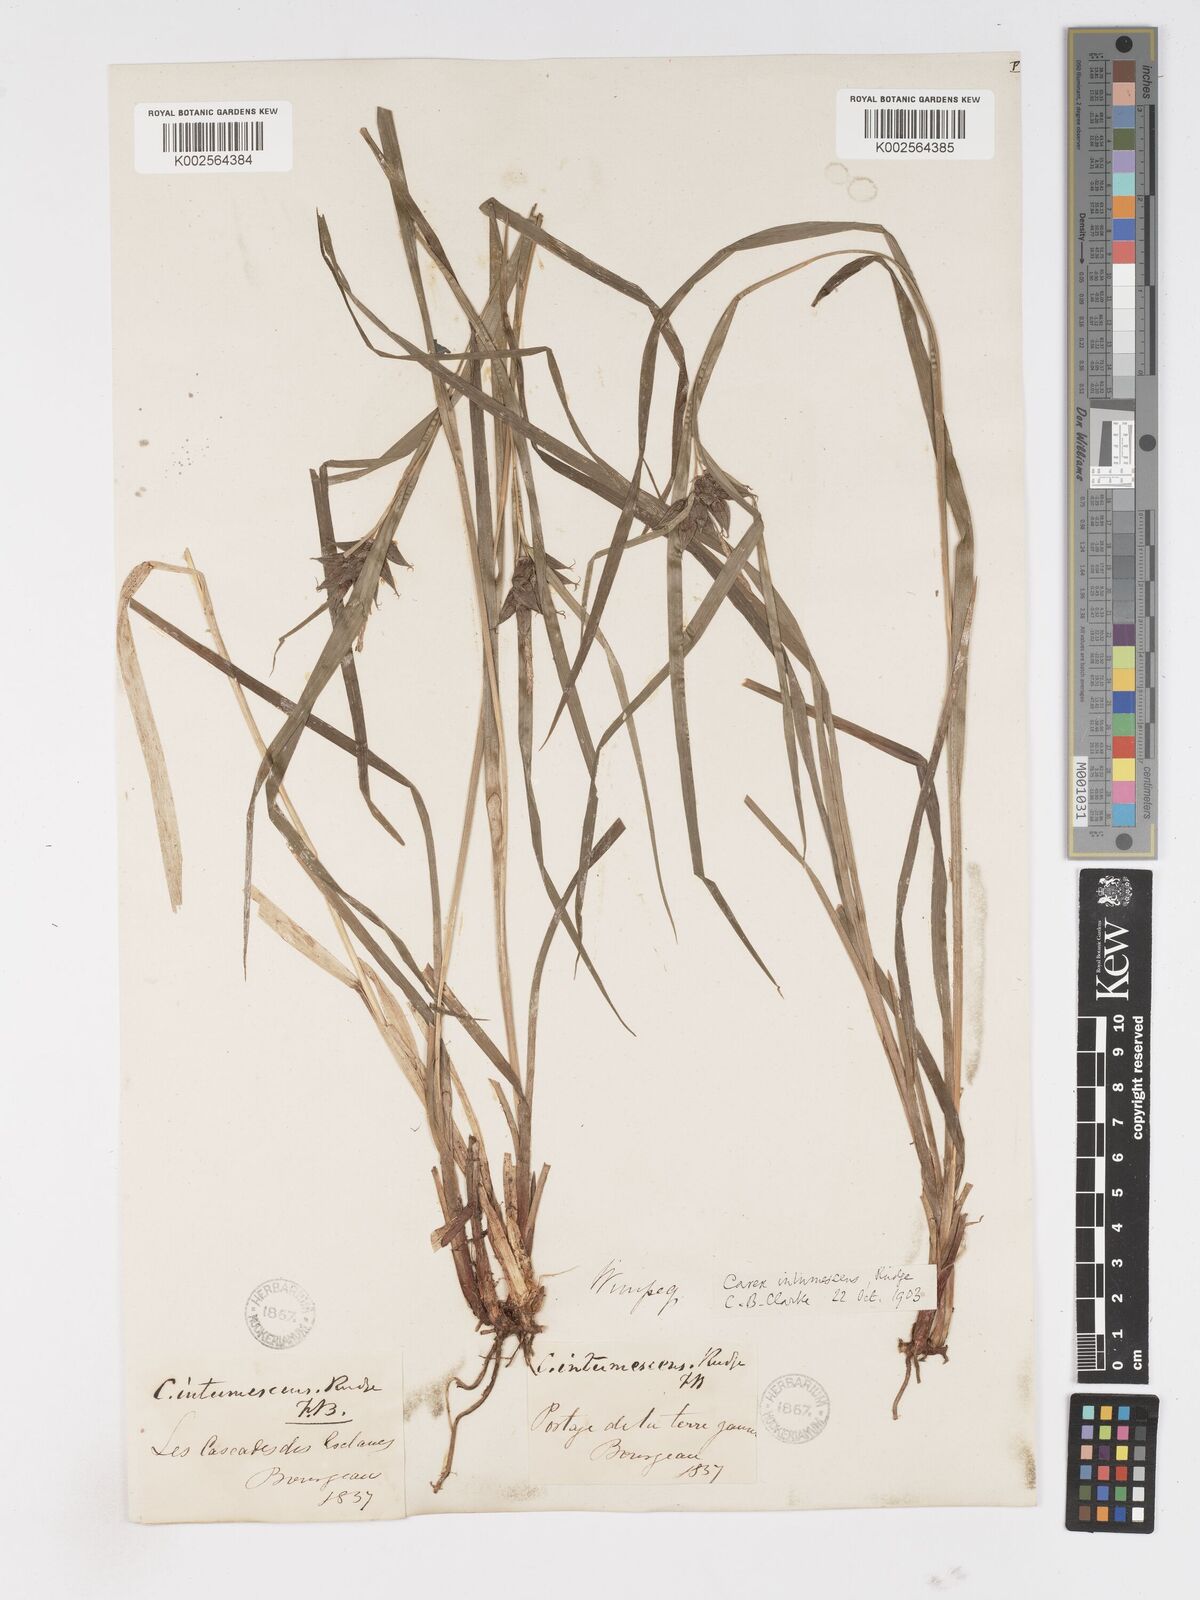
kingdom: Plantae
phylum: Tracheophyta
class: Liliopsida
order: Poales
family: Cyperaceae
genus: Carex
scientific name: Carex intumescens
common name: Greater bladder sedge
